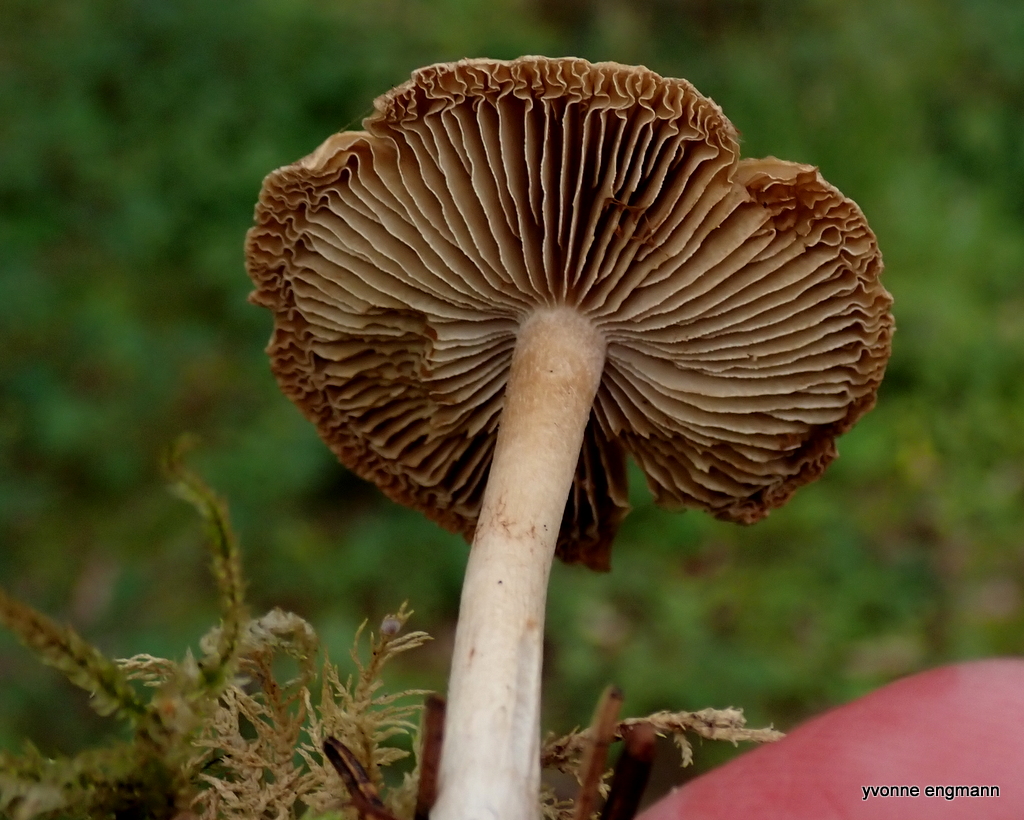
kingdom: Fungi
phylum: Basidiomycota
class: Agaricomycetes
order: Agaricales
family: Inocybaceae
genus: Inocybe
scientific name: Inocybe
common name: trævlhat
